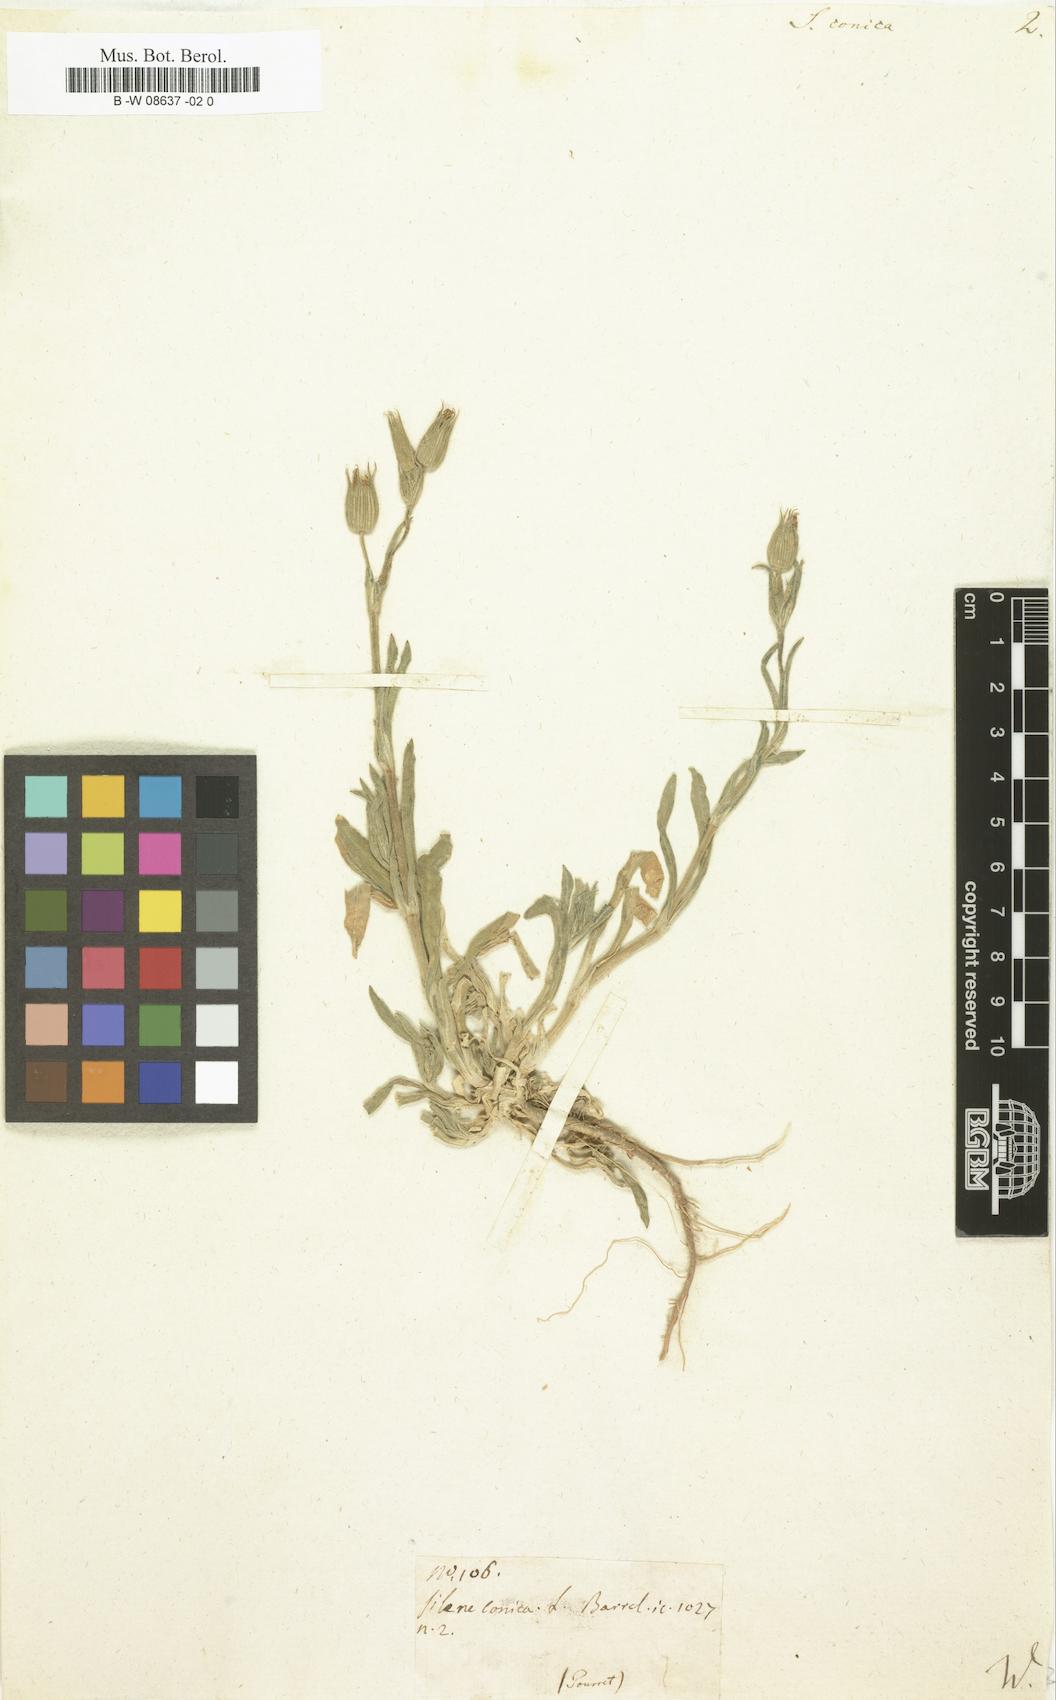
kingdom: Plantae
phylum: Tracheophyta
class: Magnoliopsida
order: Caryophyllales
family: Caryophyllaceae
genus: Silene
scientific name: Silene conica
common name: Sand catchfly
